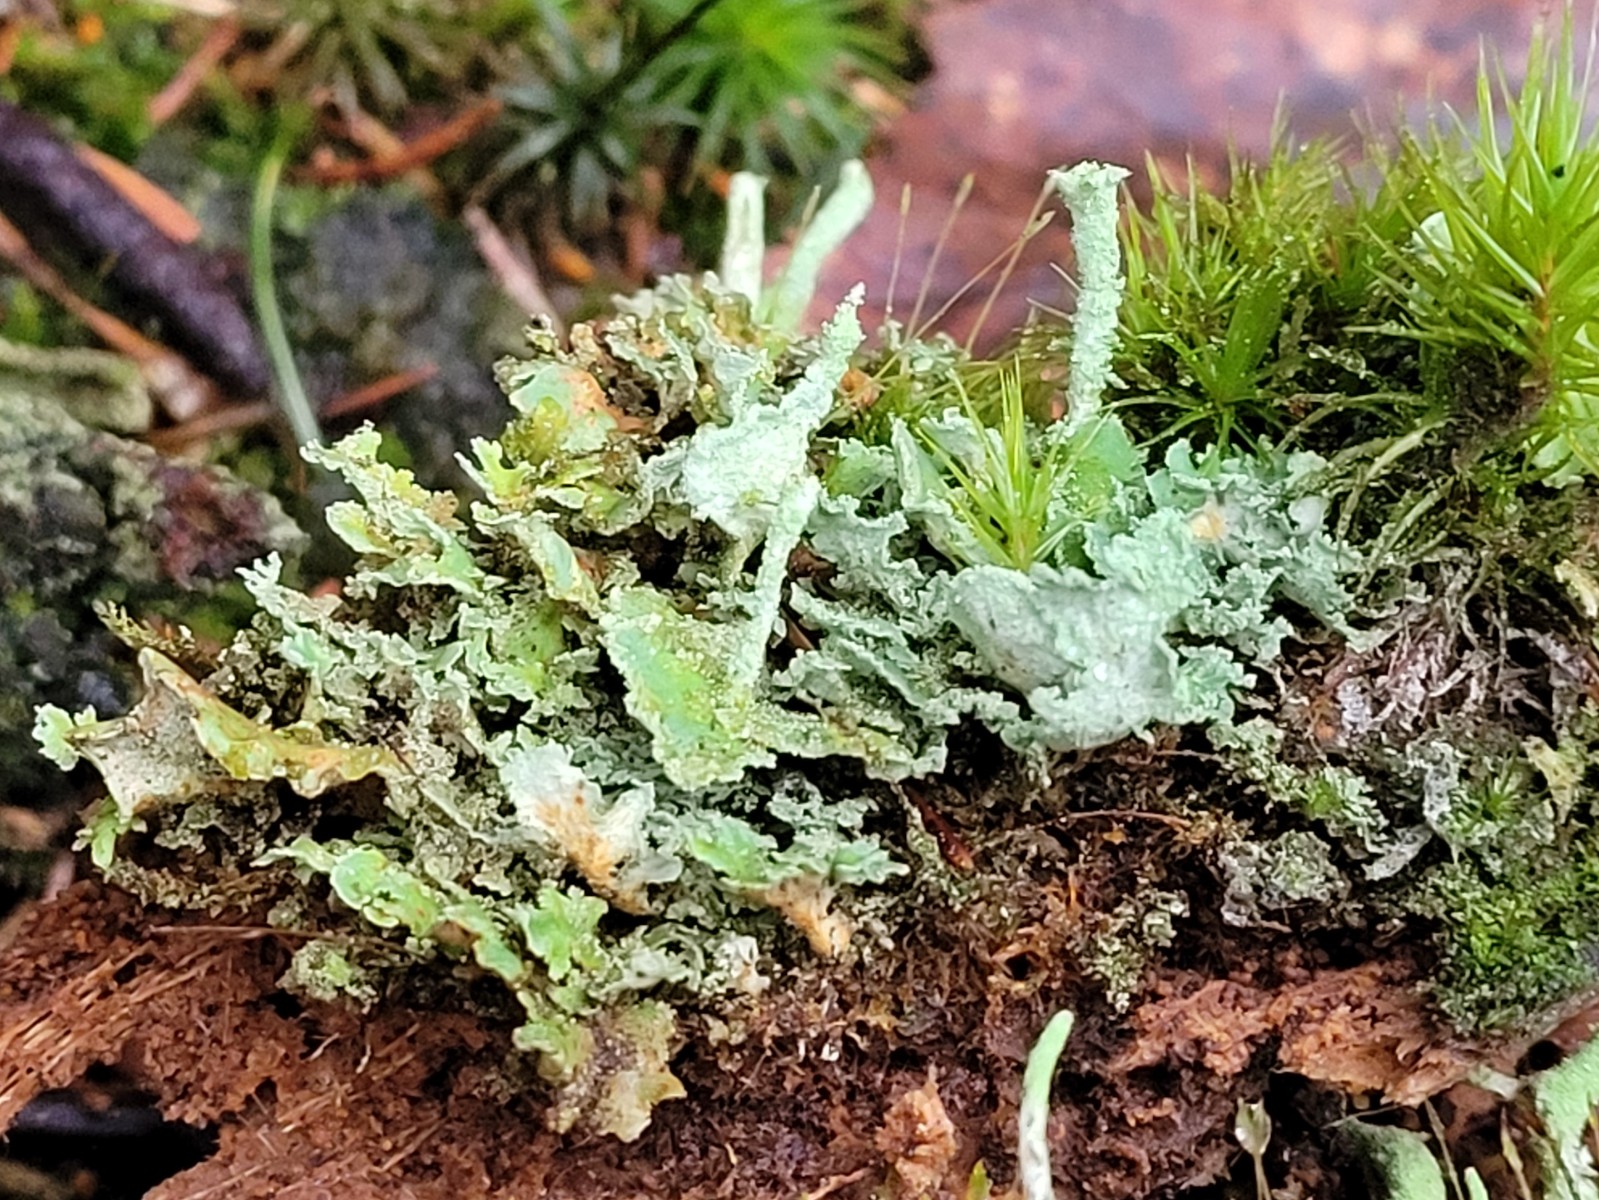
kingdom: Fungi
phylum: Ascomycota
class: Lecanoromycetes
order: Lecanorales
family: Cladoniaceae
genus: Cladonia
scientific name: Cladonia digitata
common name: finger-bægerlav
